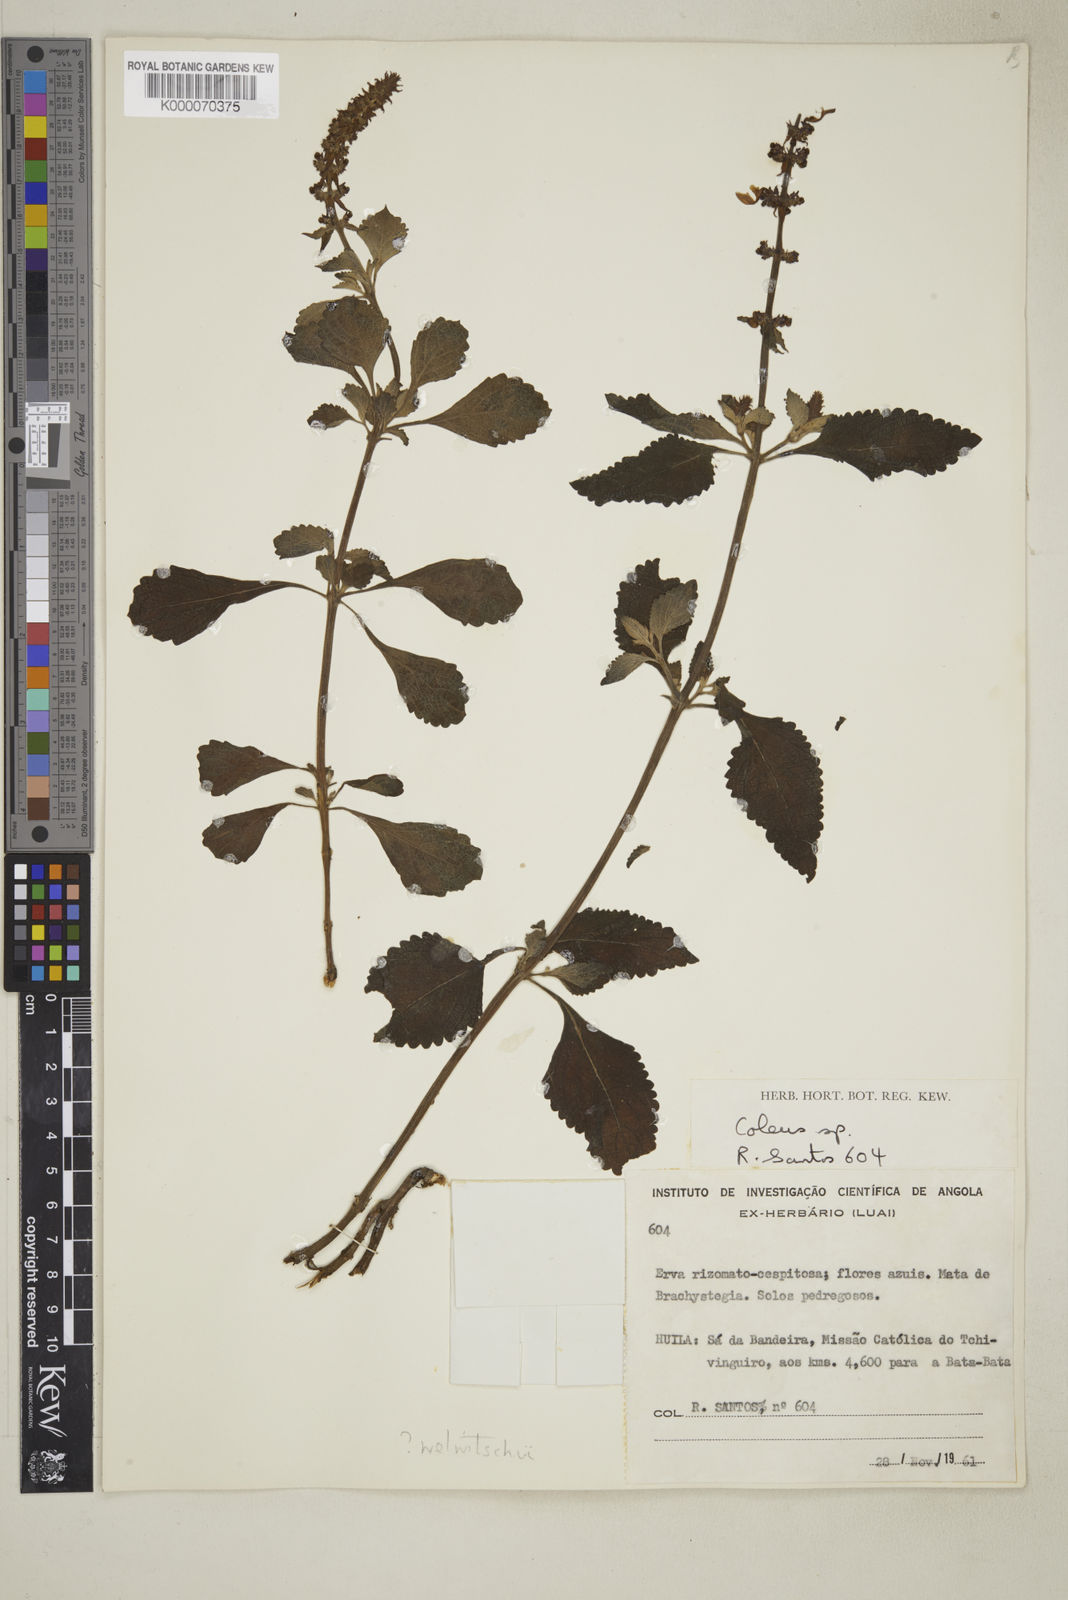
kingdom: Plantae
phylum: Tracheophyta
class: Magnoliopsida
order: Lamiales
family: Lamiaceae
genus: Coleus
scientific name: Coleus welwitschii
